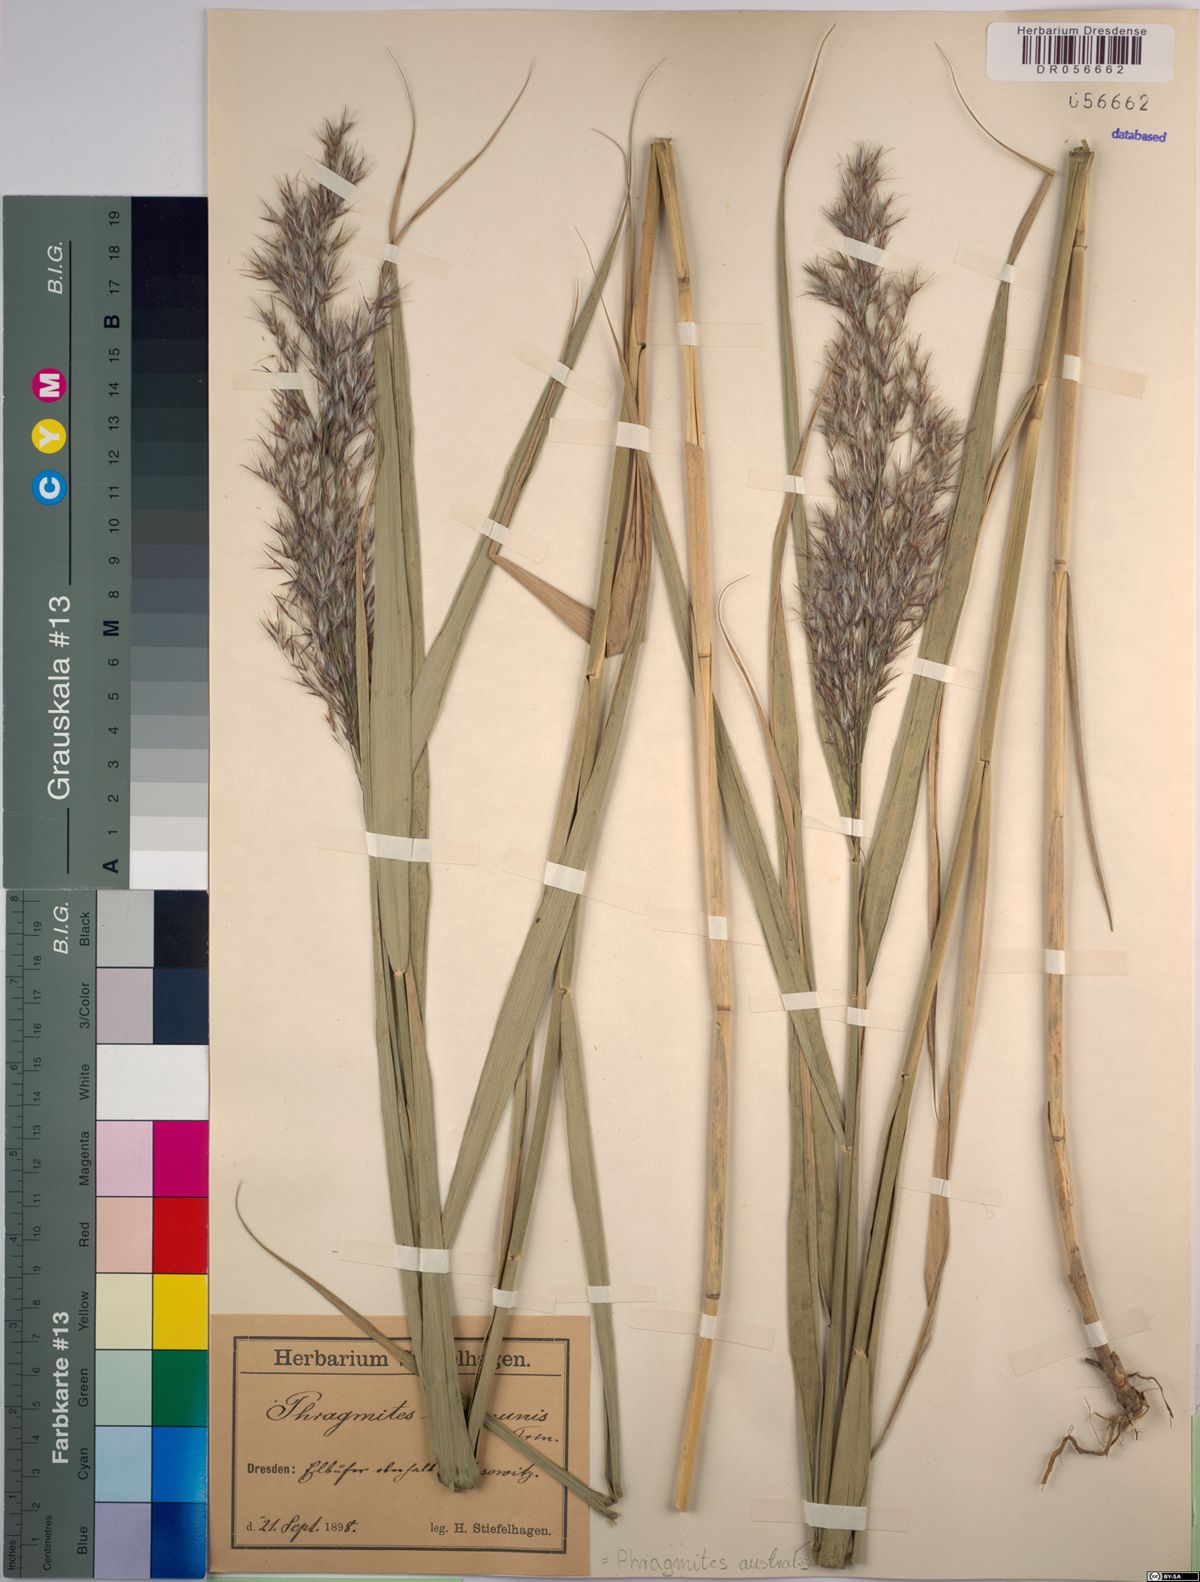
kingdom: Plantae
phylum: Tracheophyta
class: Liliopsida
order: Poales
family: Poaceae
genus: Phragmites
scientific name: Phragmites australis
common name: Common reed
